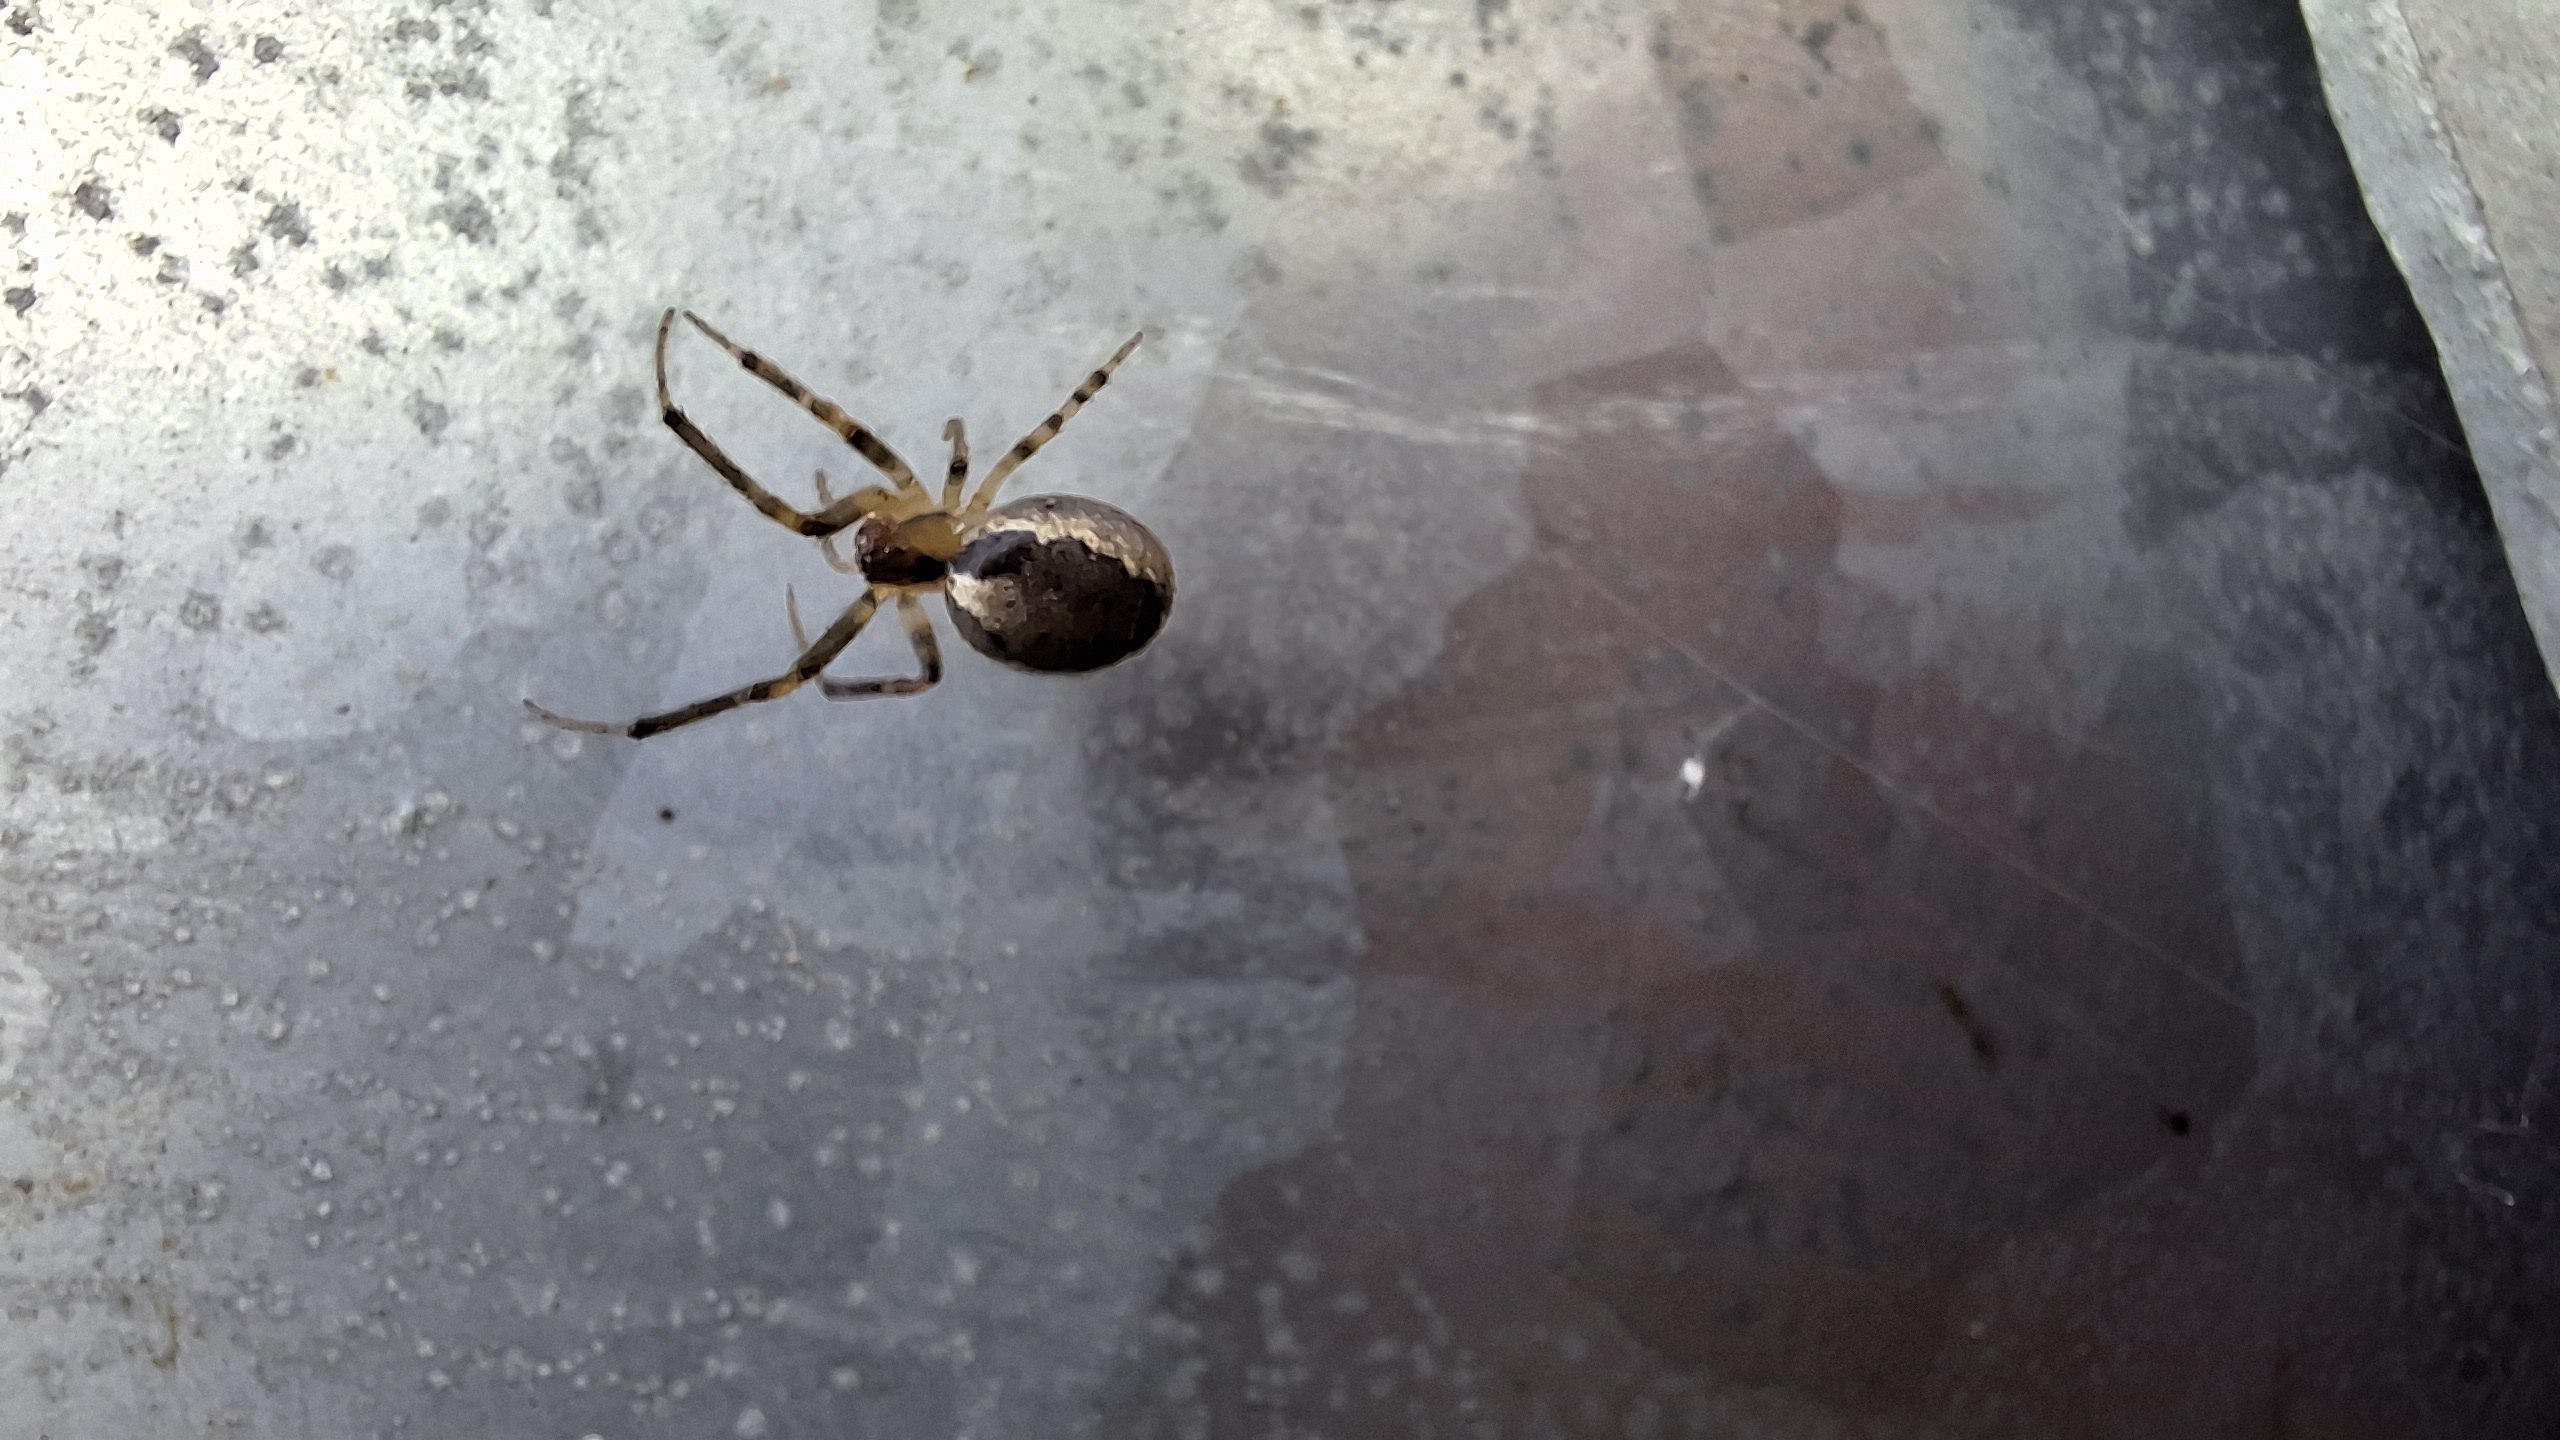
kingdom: Animalia
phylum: Arthropoda
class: Arachnida
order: Araneae
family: Araneidae
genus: Zygiella
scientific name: Zygiella x-notata
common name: Grå sektoredderkop
